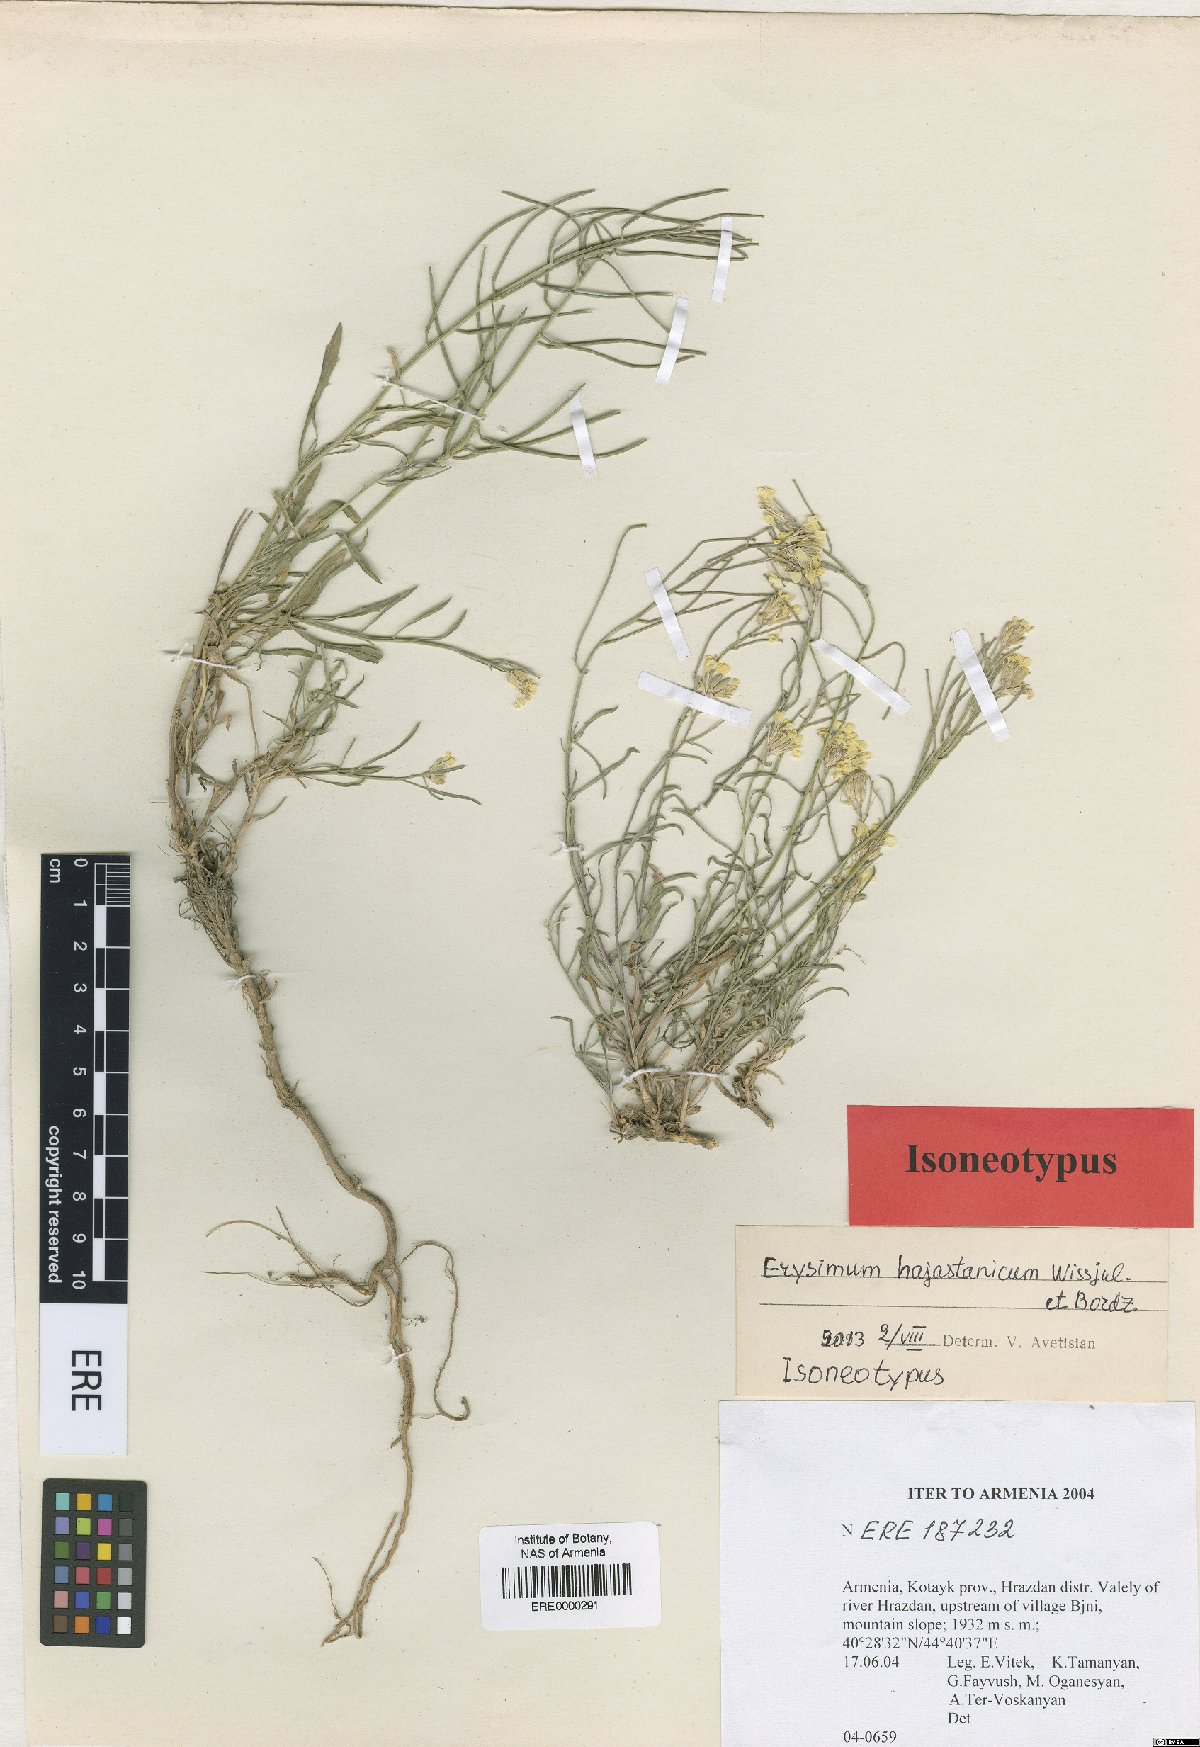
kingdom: Plantae
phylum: Tracheophyta
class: Magnoliopsida
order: Brassicales
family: Brassicaceae
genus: Erysimum
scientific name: Erysimum hajastanicum
